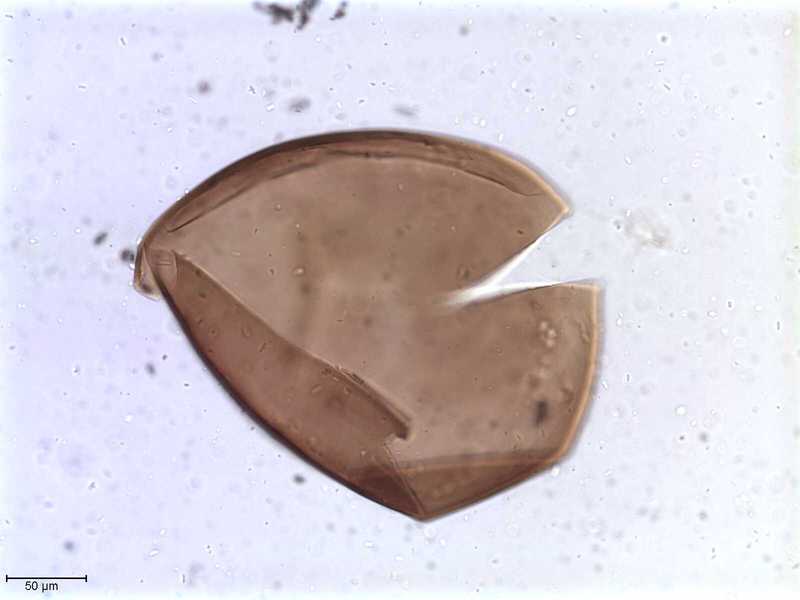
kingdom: Animalia
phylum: Arthropoda
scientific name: Arthropoda
